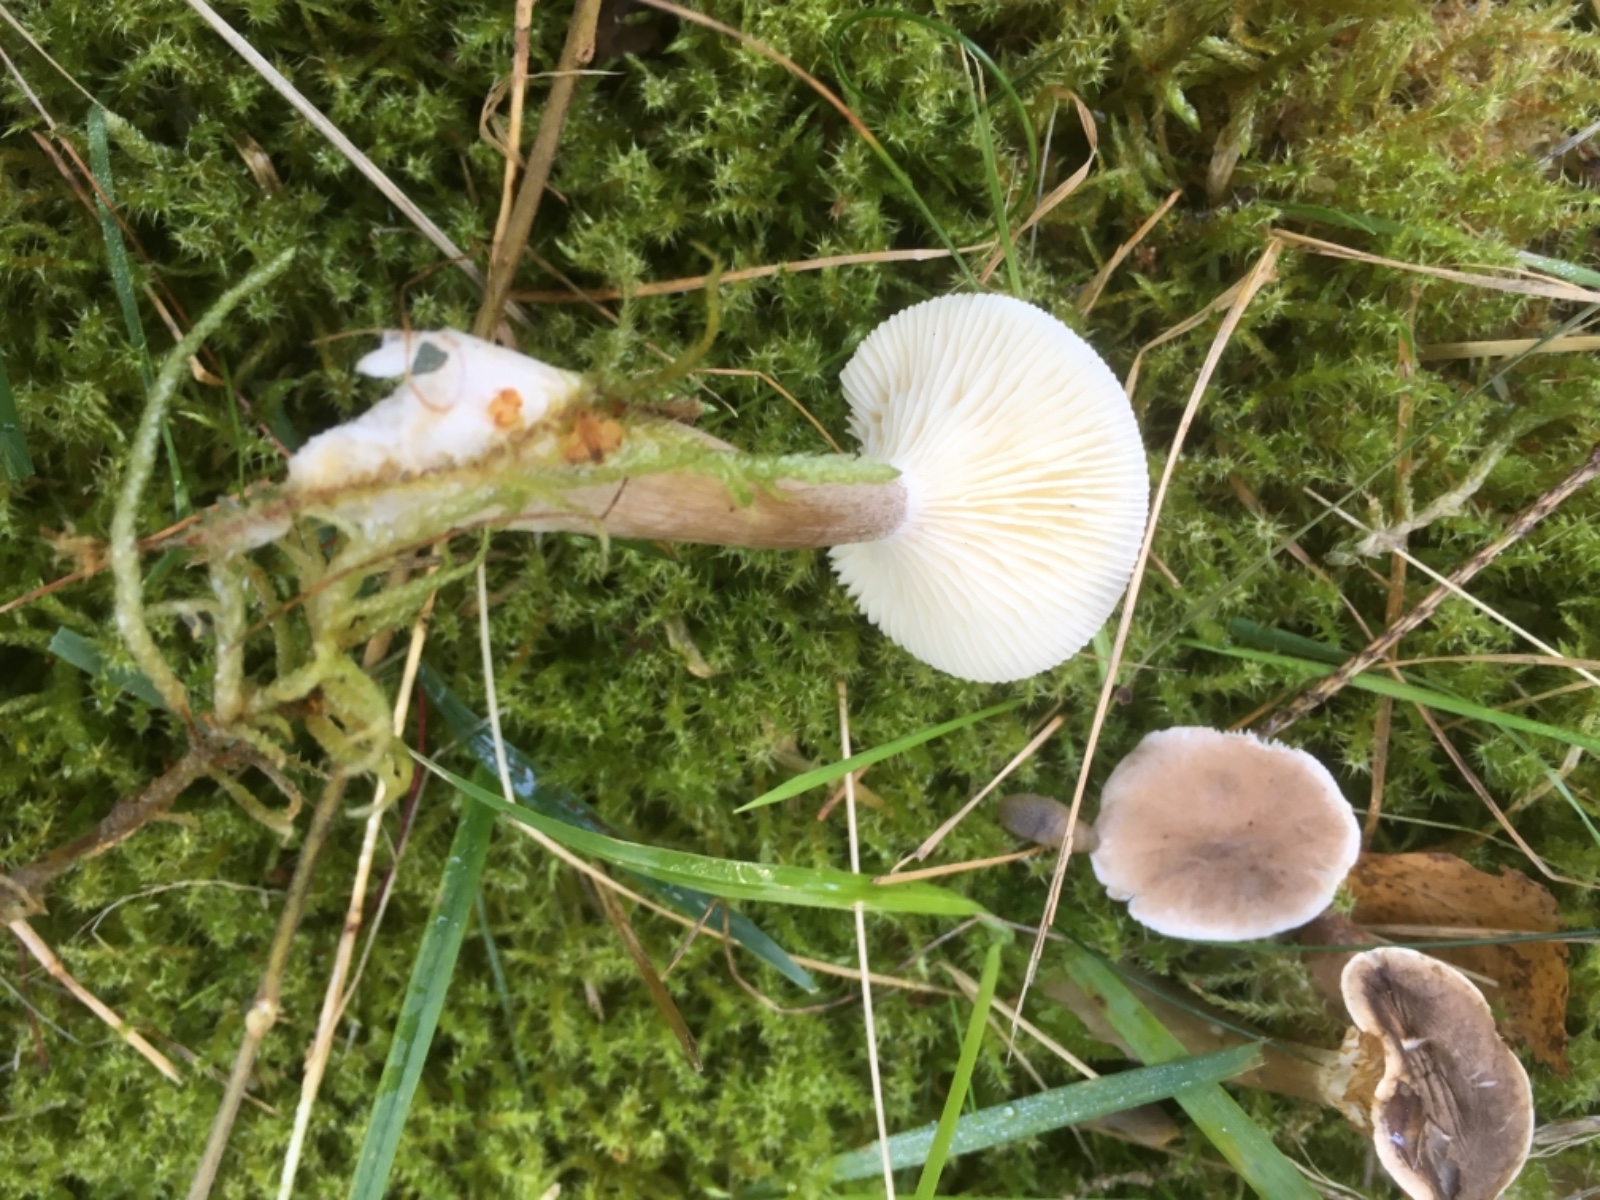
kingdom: Fungi
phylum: Basidiomycota
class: Agaricomycetes
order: Agaricales
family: Hygrophoraceae
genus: Ampulloclitocybe
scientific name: Ampulloclitocybe clavipes
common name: køllefod
